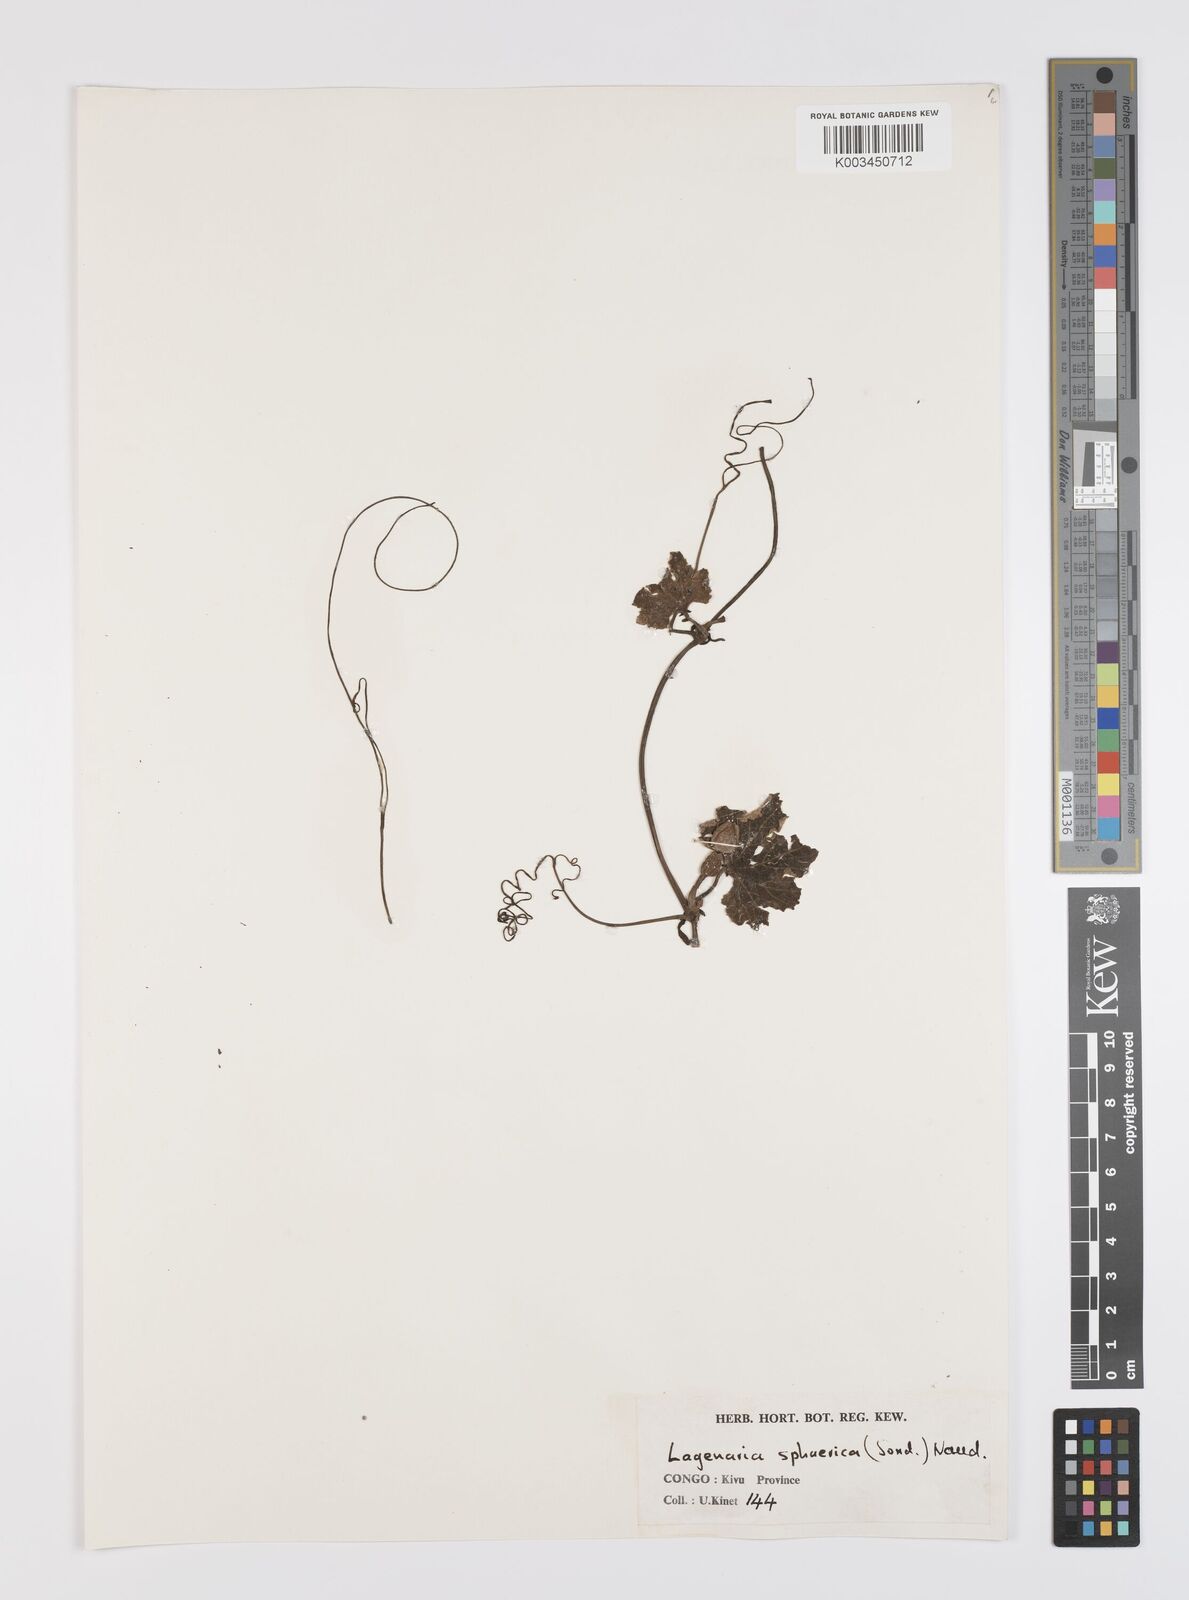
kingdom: Plantae
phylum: Tracheophyta
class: Magnoliopsida
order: Cucurbitales
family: Cucurbitaceae
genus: Lagenaria
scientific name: Lagenaria sphaerica
